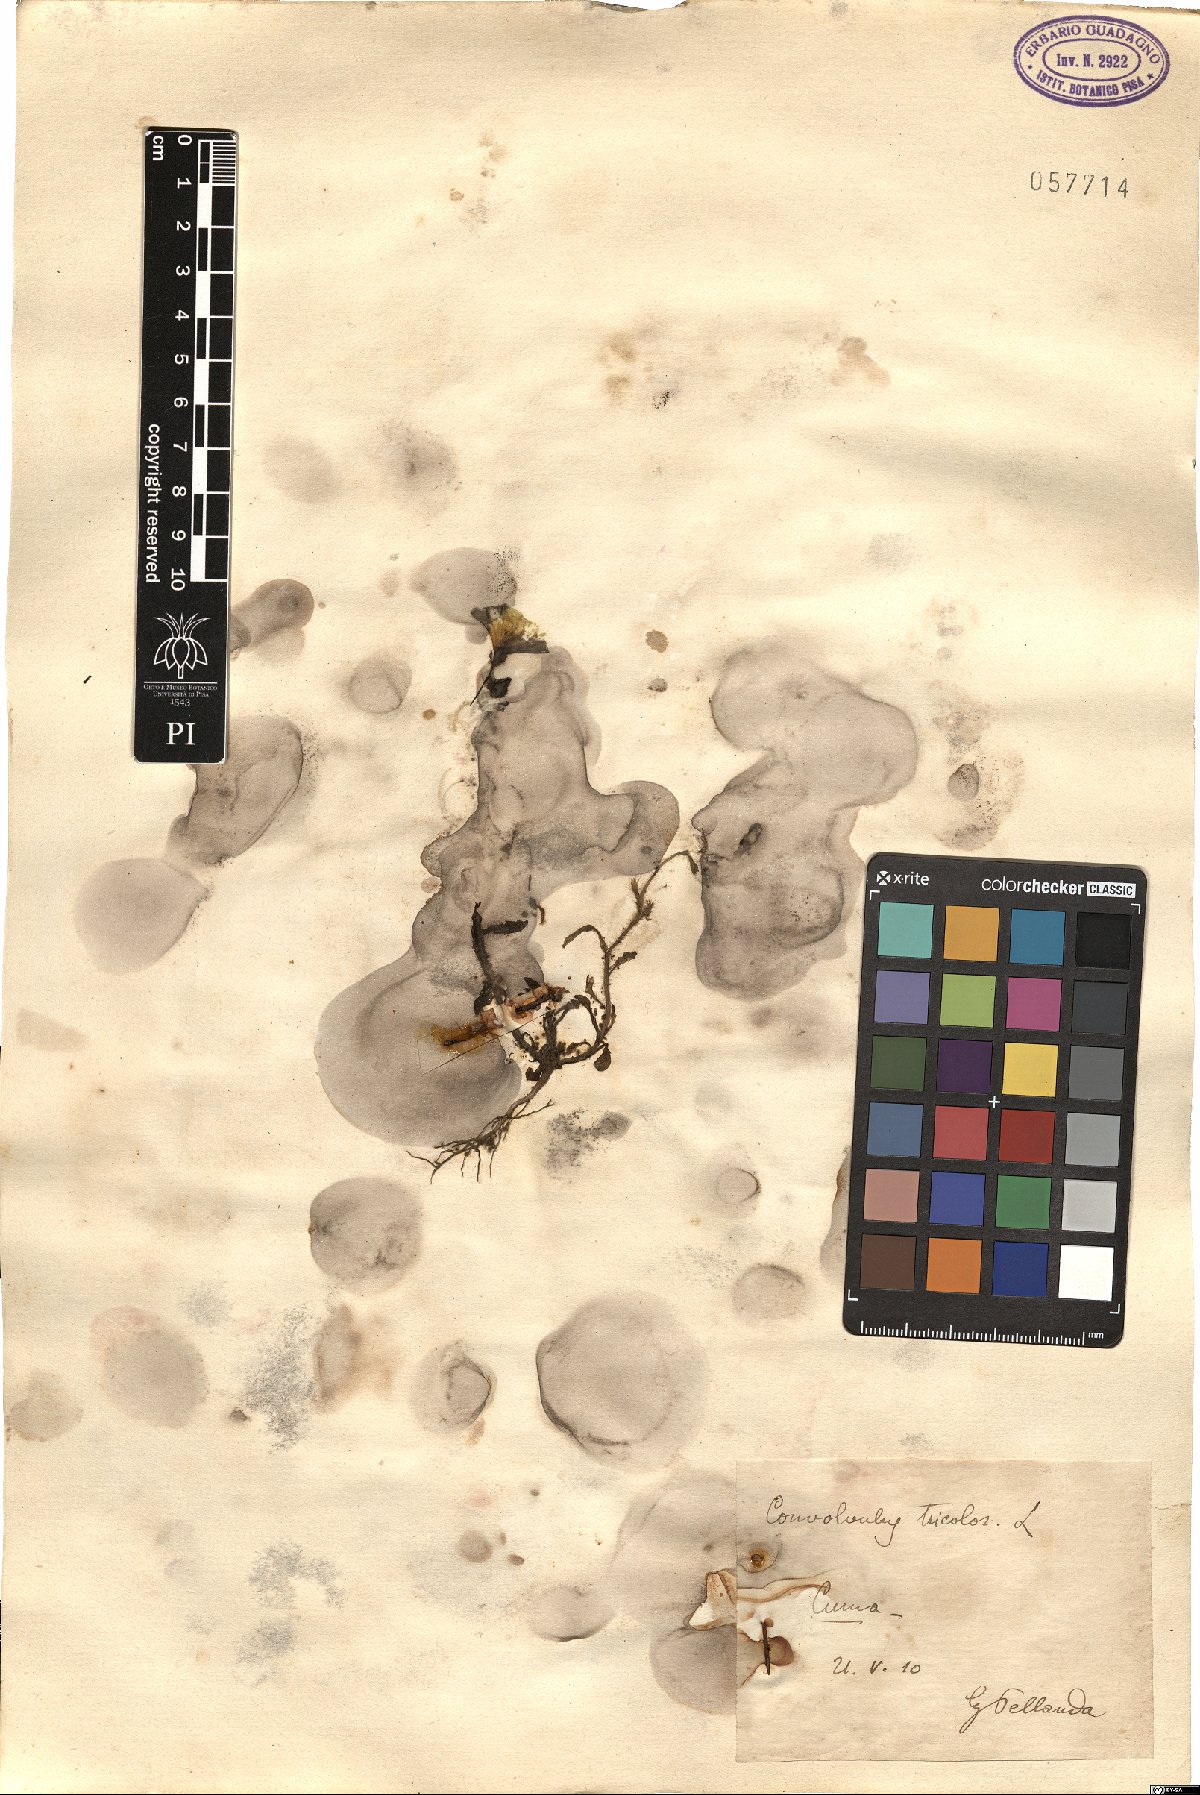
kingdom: Plantae
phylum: Tracheophyta
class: Magnoliopsida
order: Solanales
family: Convolvulaceae
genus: Convolvulus
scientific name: Convolvulus tricolor
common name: Dwarf morning-glory
